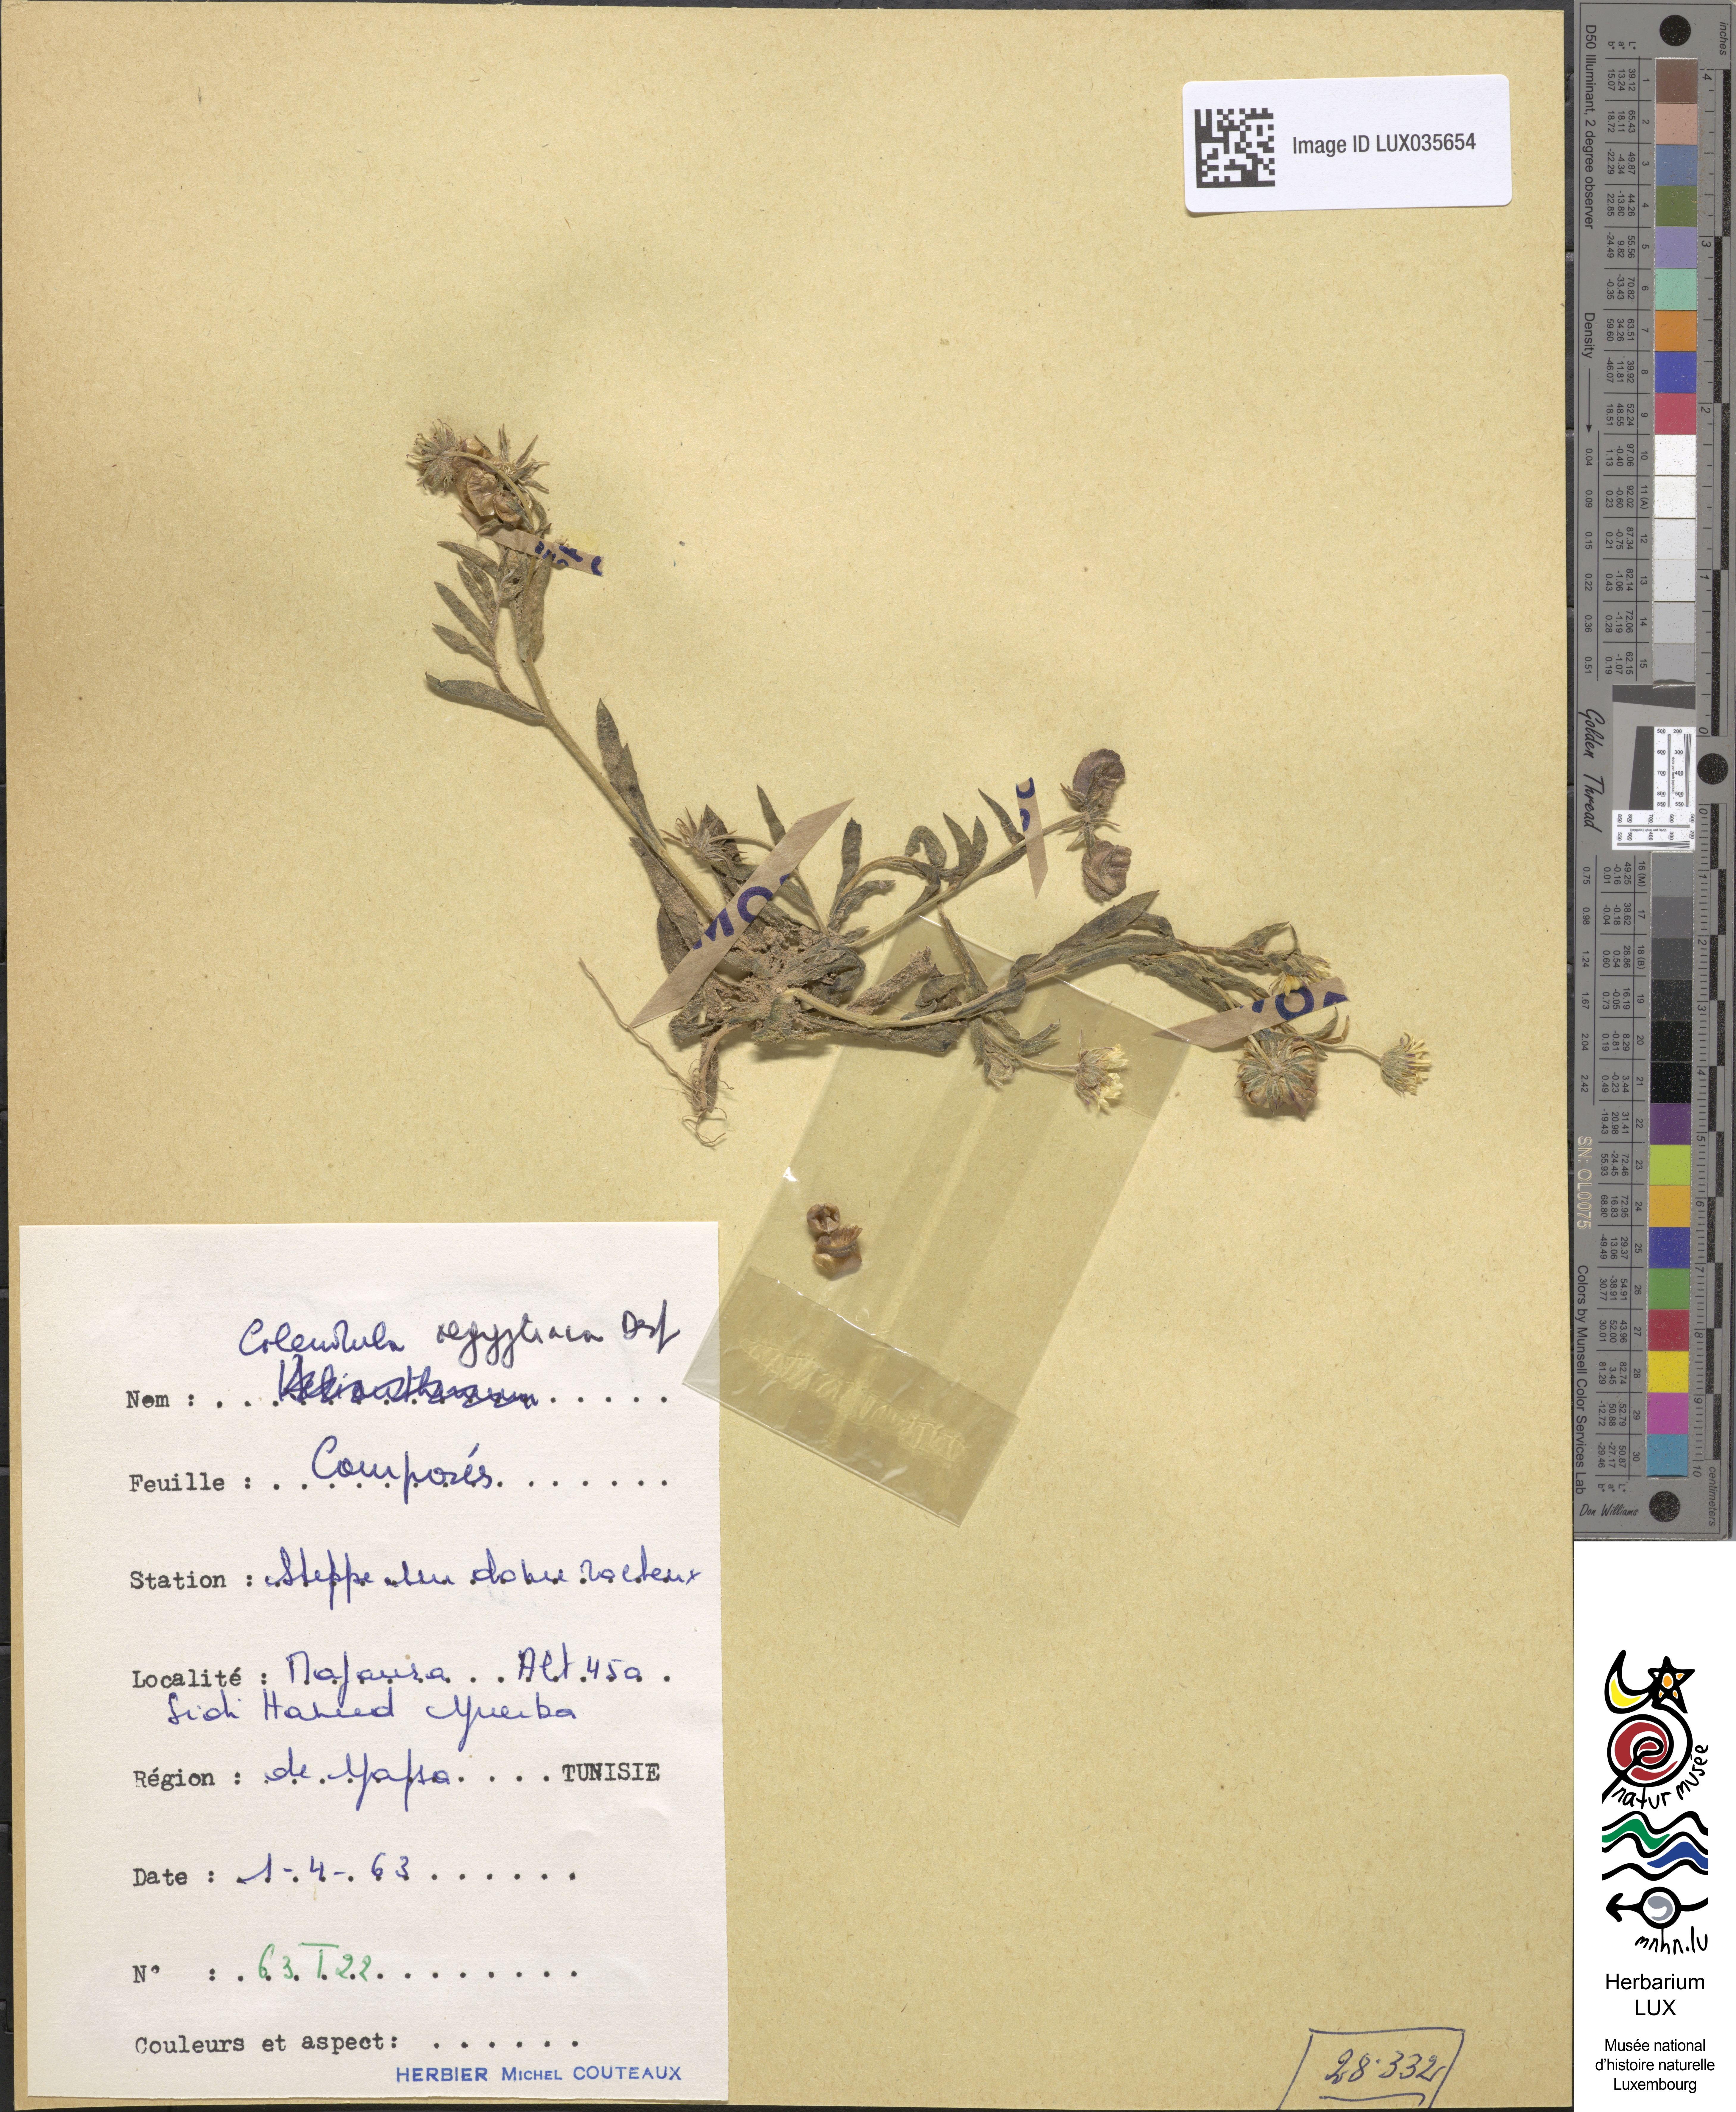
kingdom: Plantae
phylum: Tracheophyta
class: Magnoliopsida
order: Asterales
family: Asteraceae
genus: Calendula
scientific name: Calendula arvensis
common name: Field marigold
